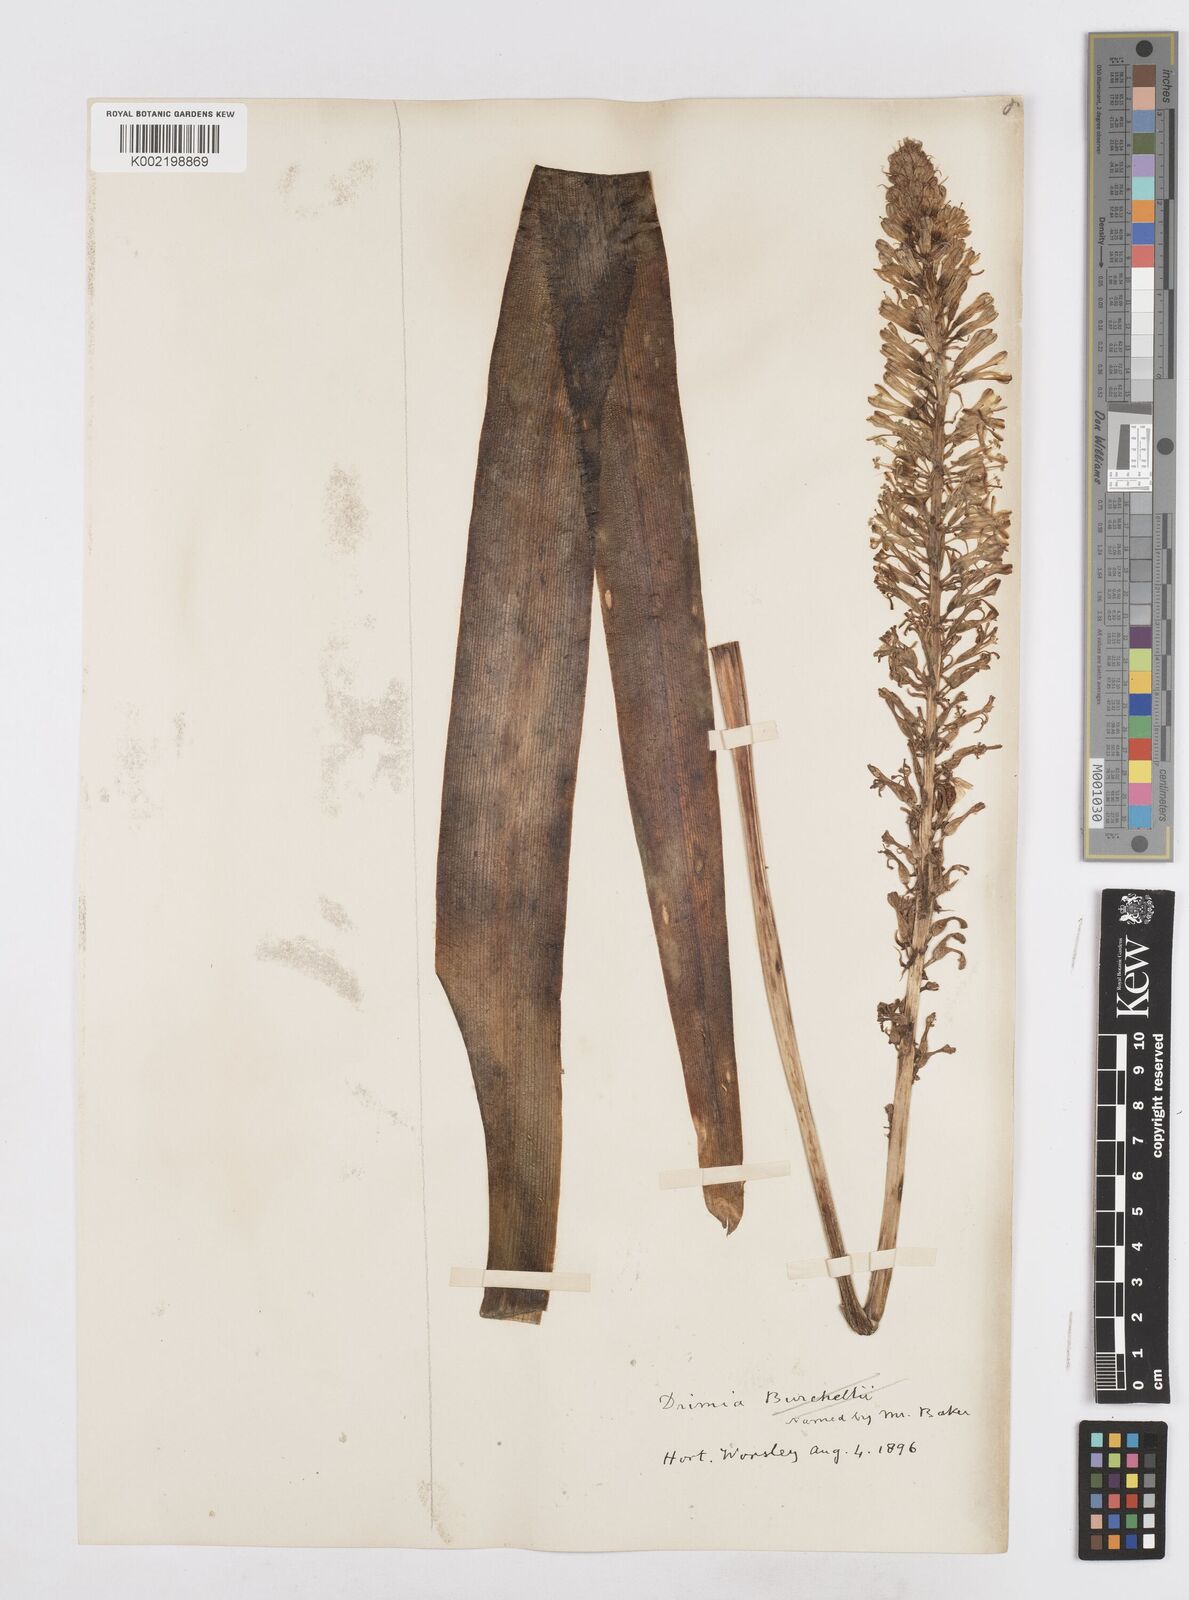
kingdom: Plantae
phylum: Tracheophyta
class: Liliopsida
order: Asparagales
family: Asparagaceae
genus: Drimia
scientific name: Drimia elata
